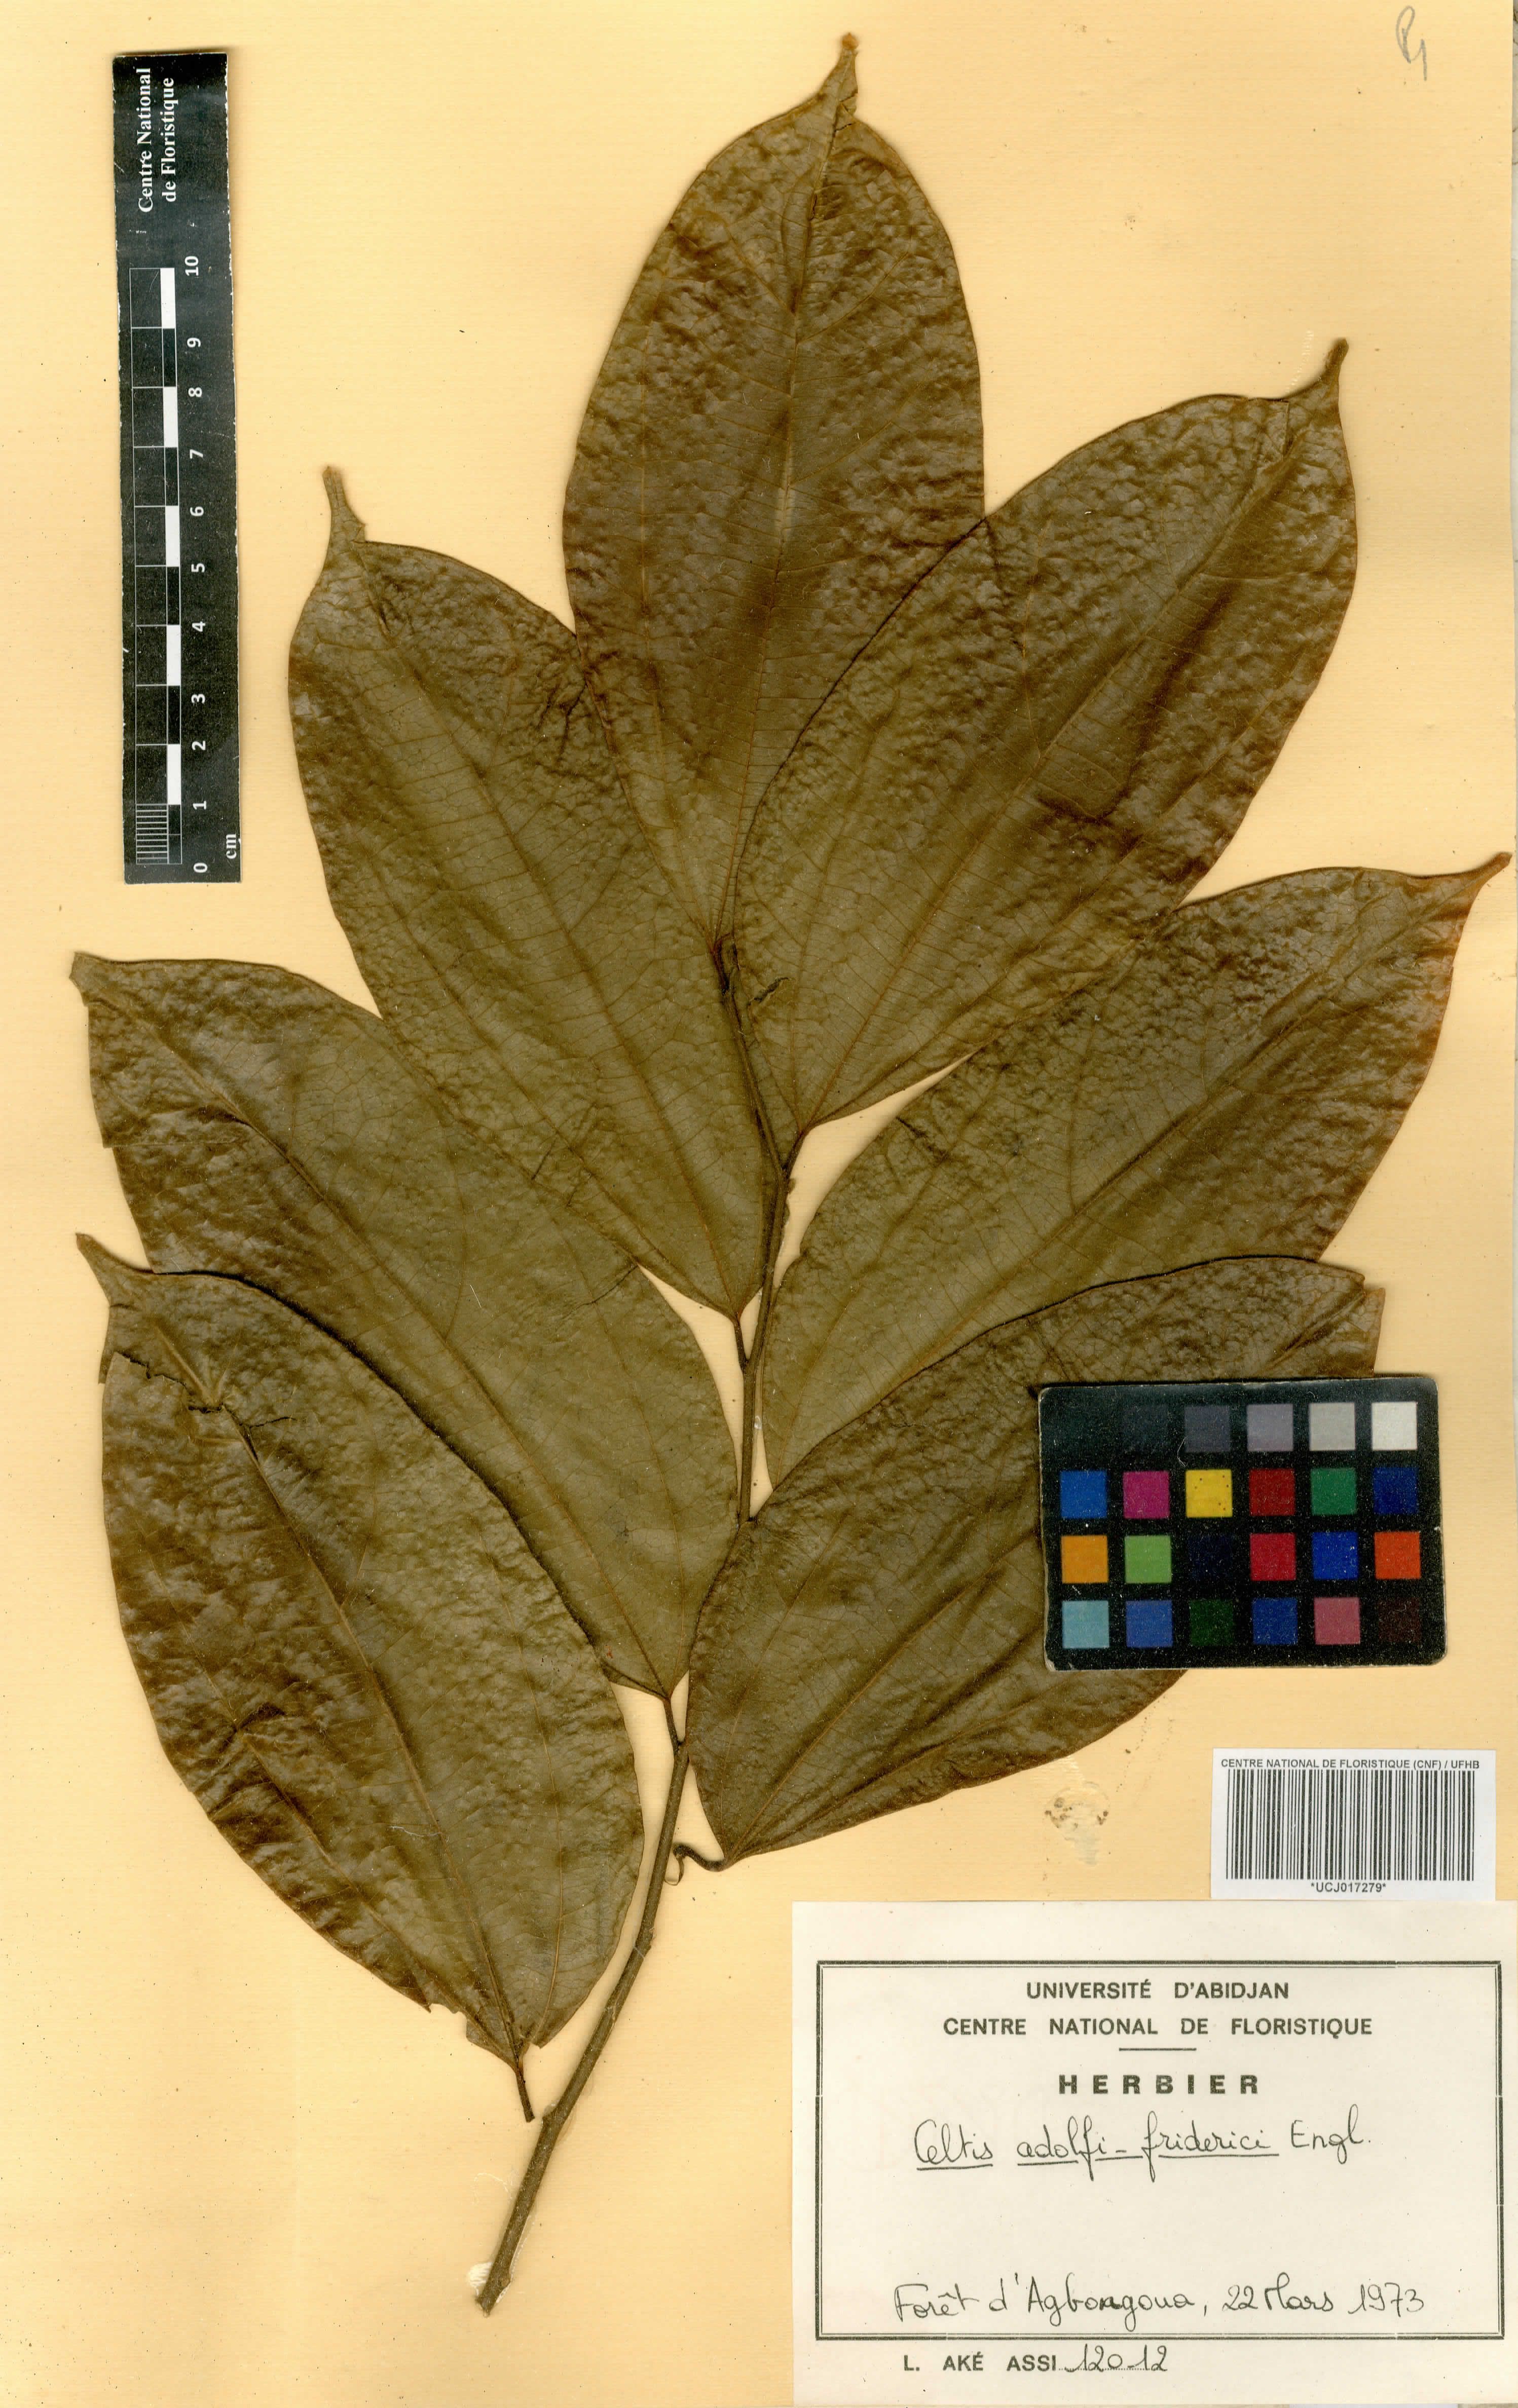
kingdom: Plantae
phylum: Tracheophyta
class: Magnoliopsida
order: Rosales
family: Cannabaceae
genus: Celtis
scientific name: Celtis adolfi-friderici
